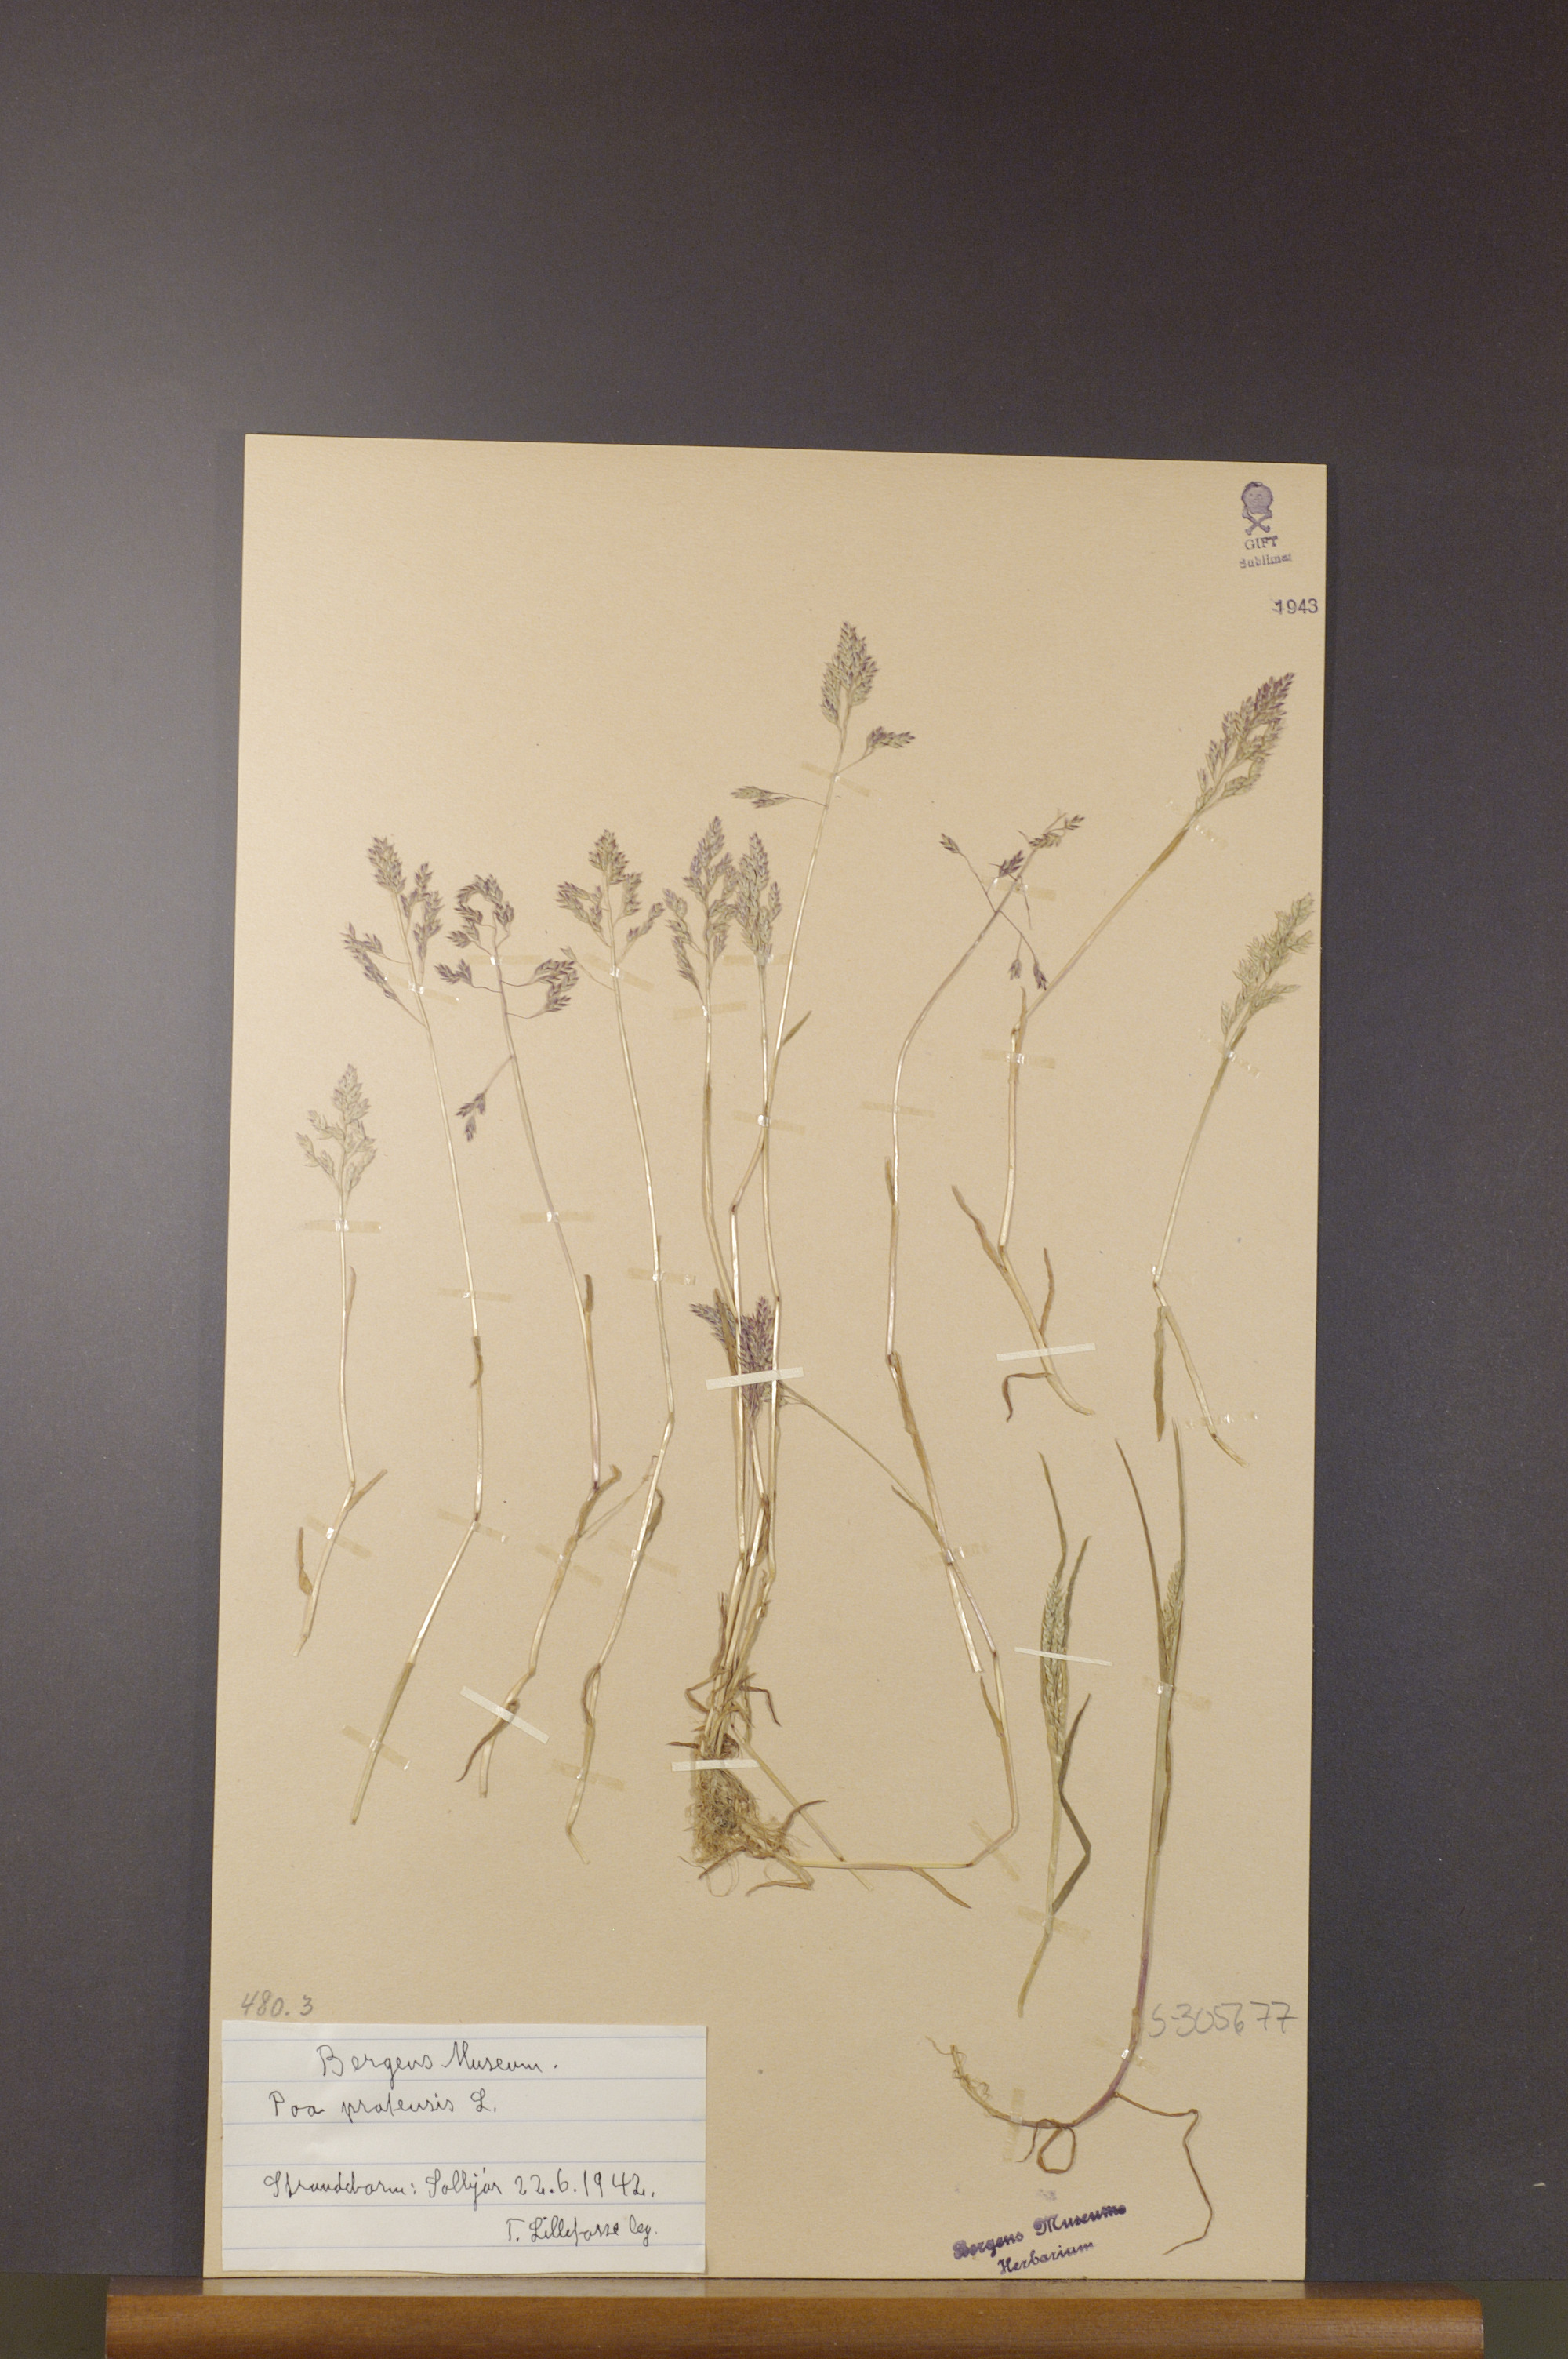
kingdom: Plantae
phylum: Tracheophyta
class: Liliopsida
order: Poales
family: Poaceae
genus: Poa
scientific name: Poa pratensis
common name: Kentucky bluegrass
